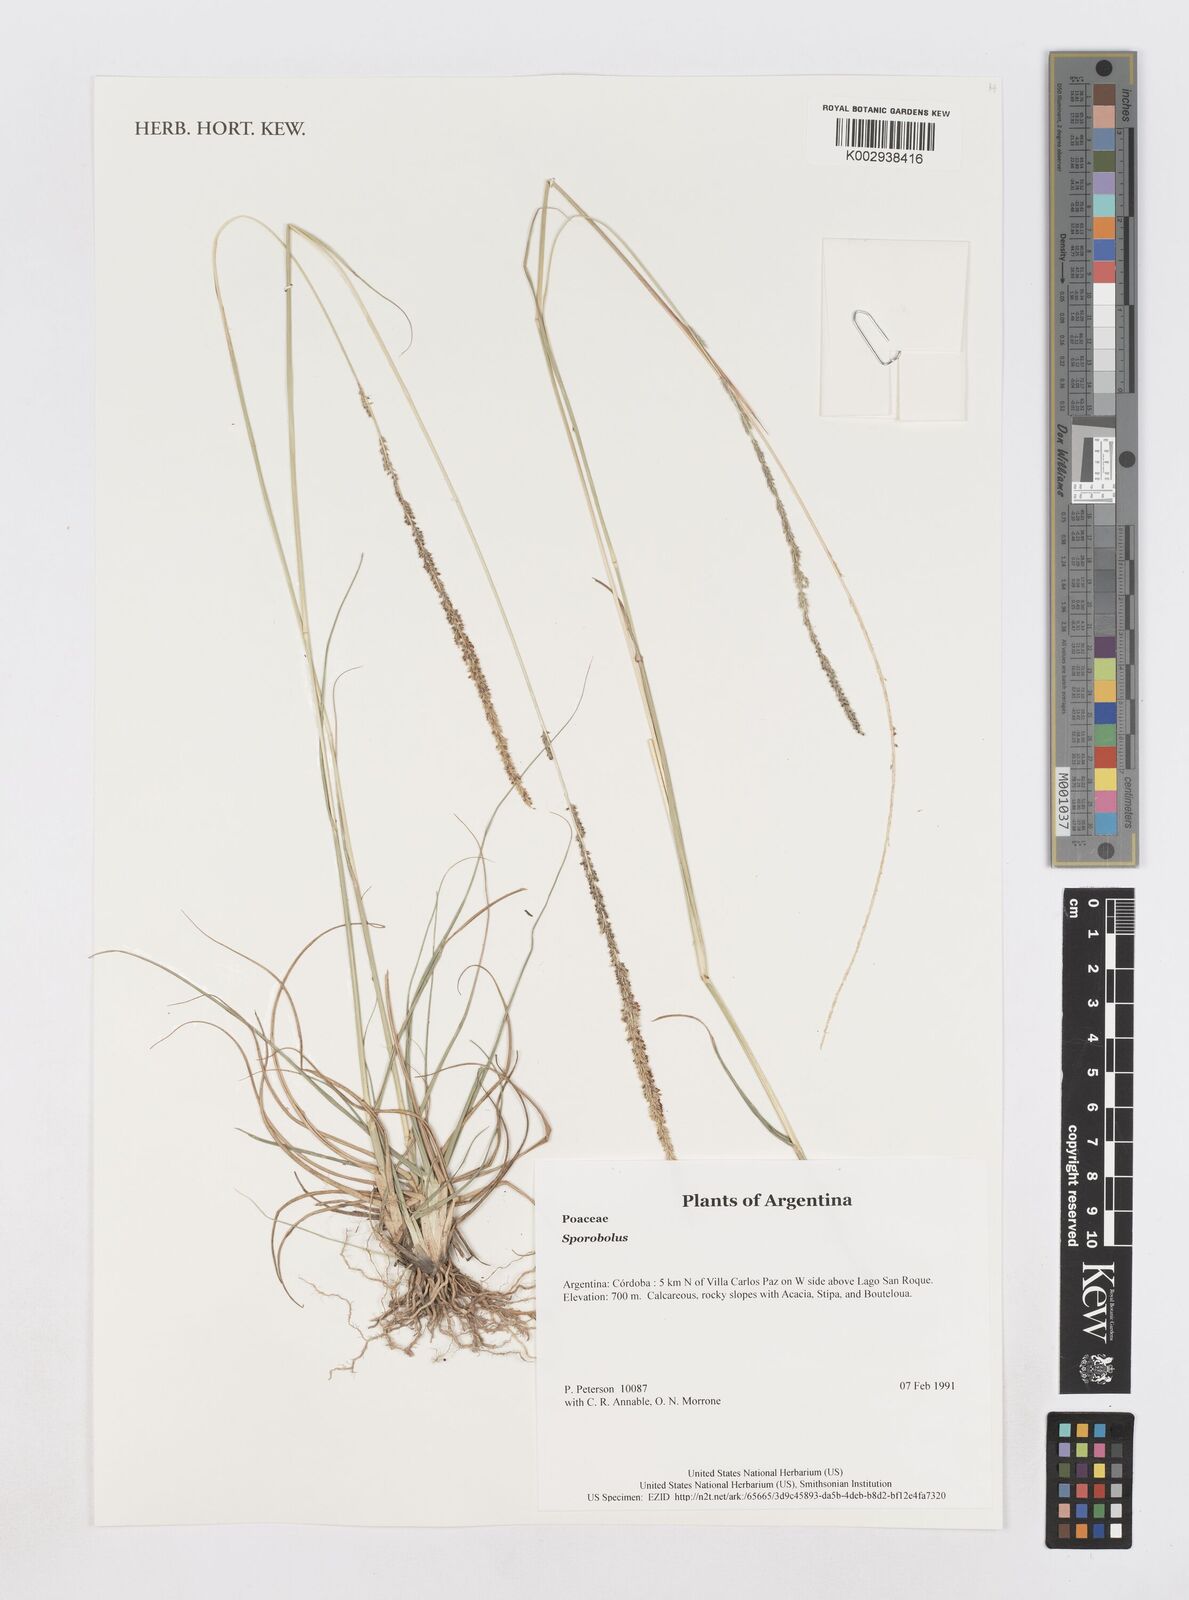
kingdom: Plantae
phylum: Tracheophyta
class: Liliopsida
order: Poales
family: Poaceae
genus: Sporobolus
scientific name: Sporobolus
